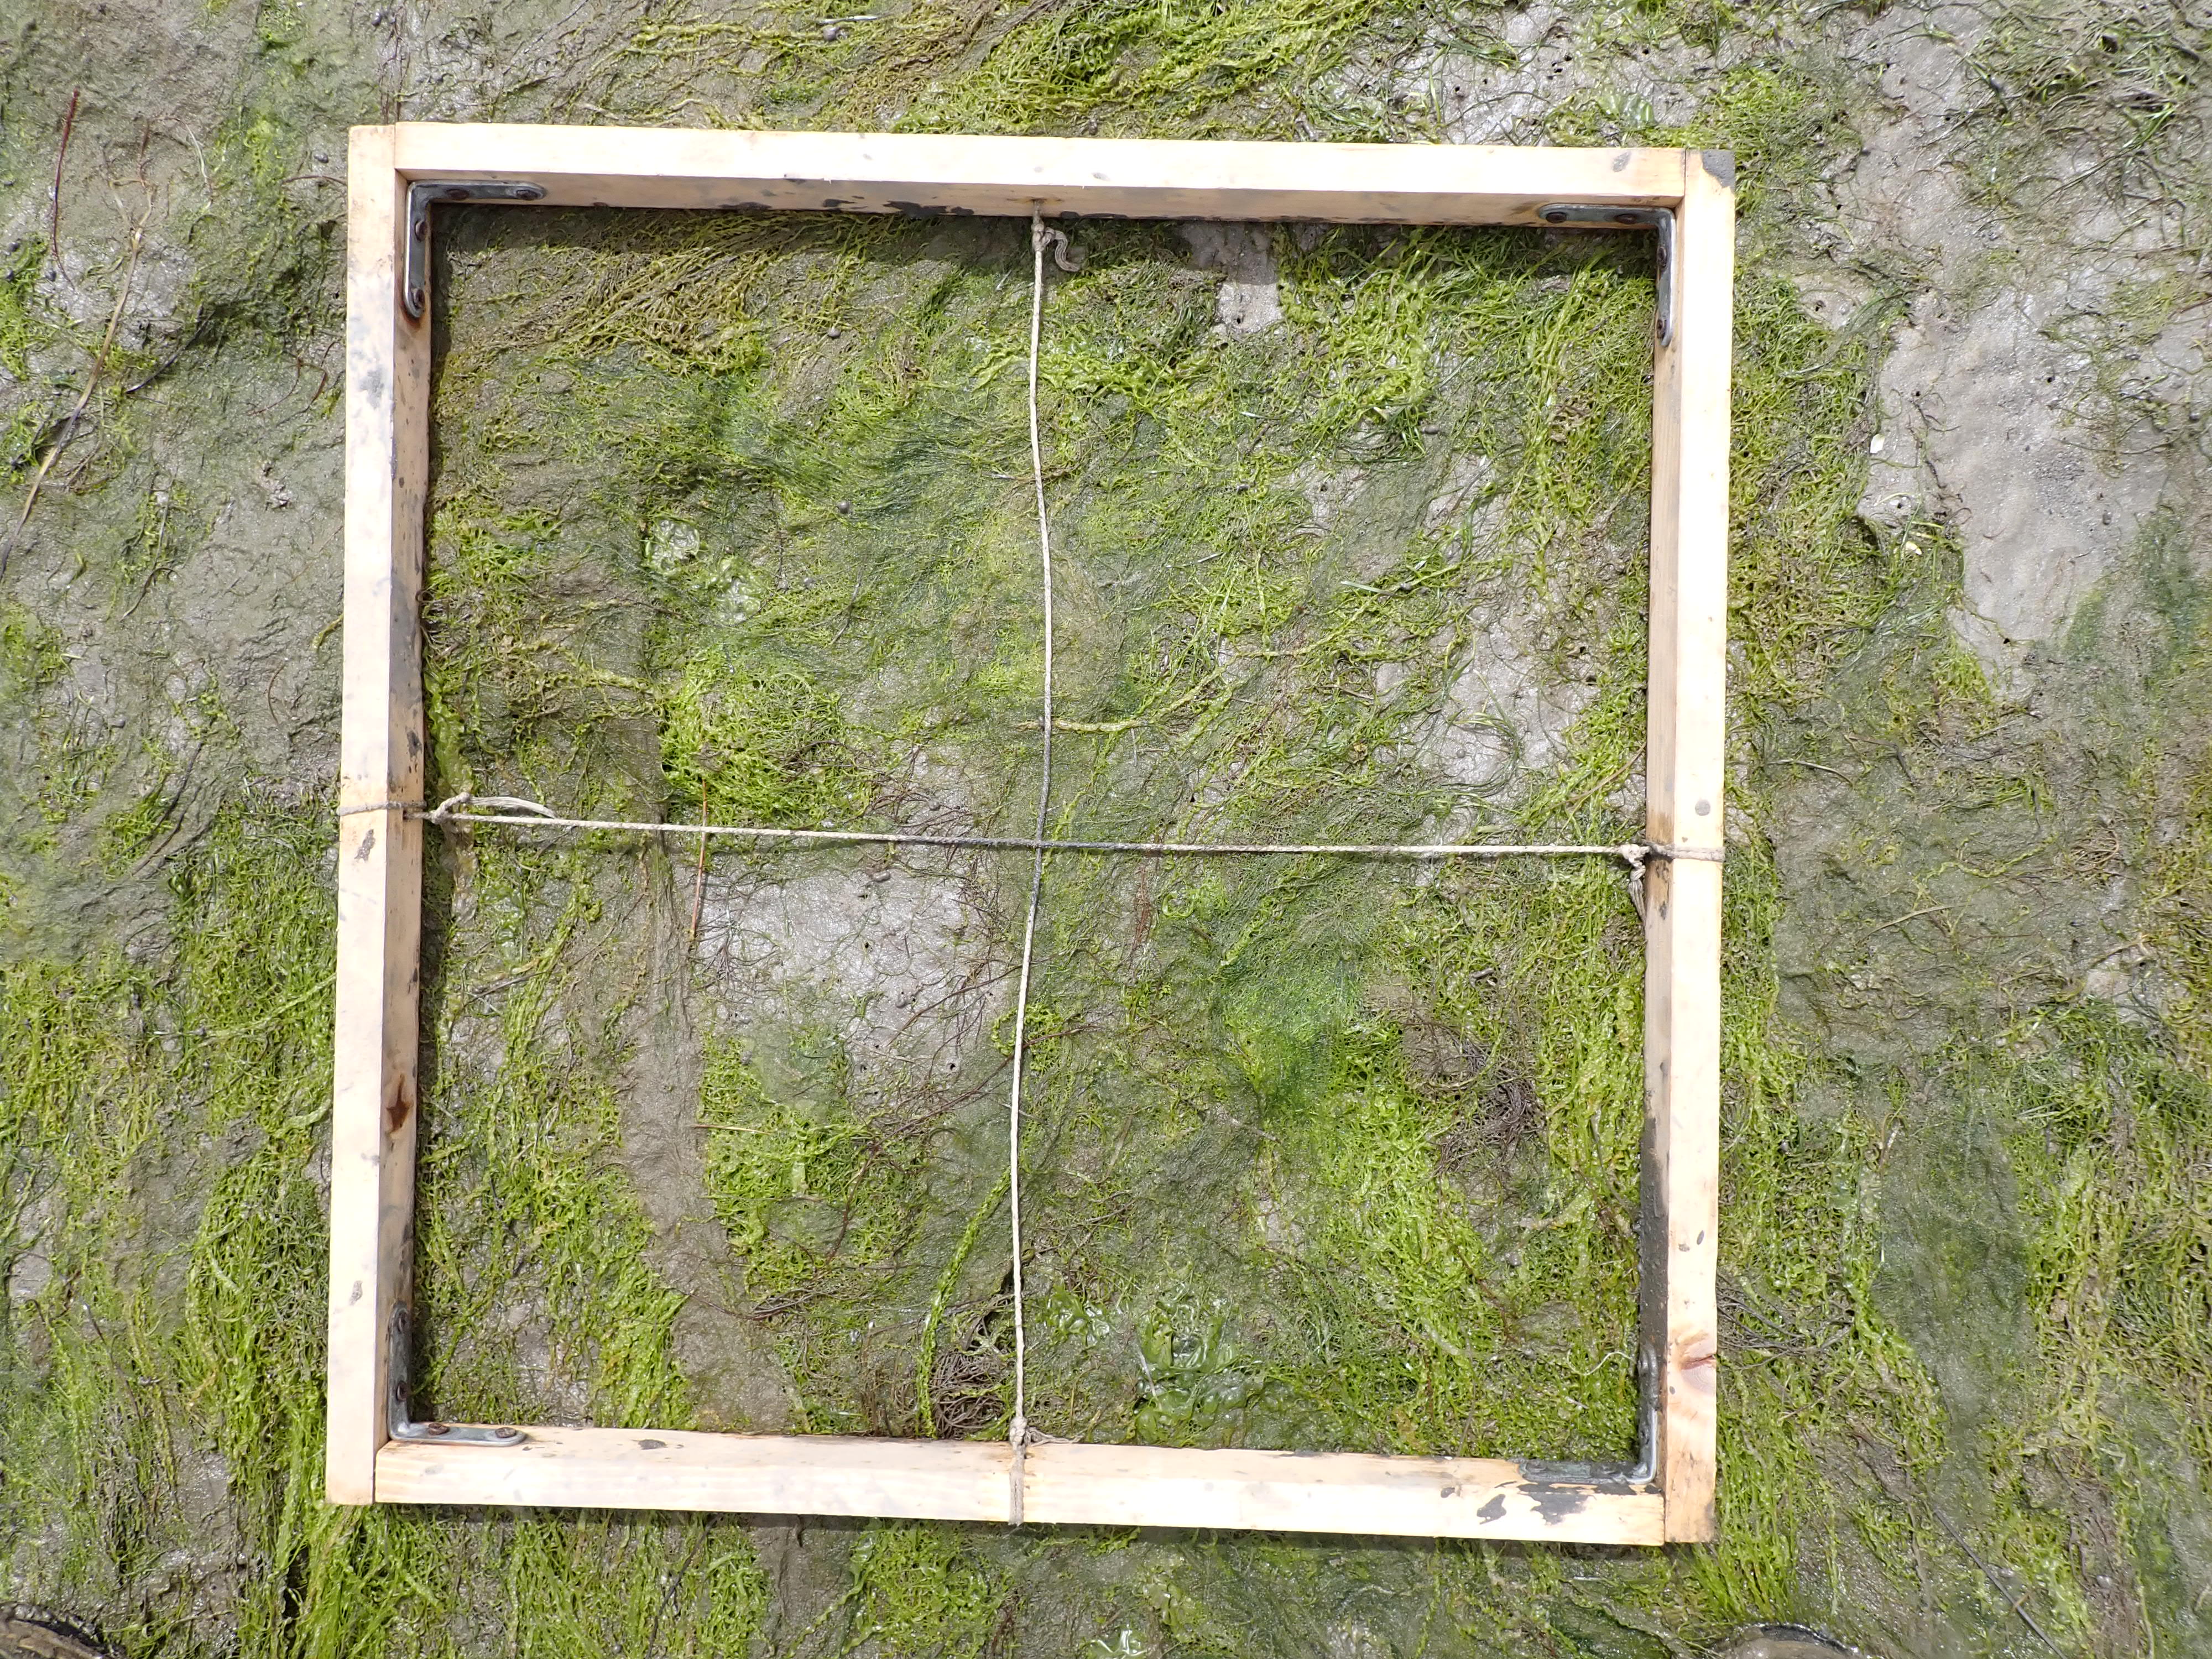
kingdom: Plantae
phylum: Chlorophyta
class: Ulvophyceae
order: Ulvales
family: Ulvaceae
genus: Ulva
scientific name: Ulva
